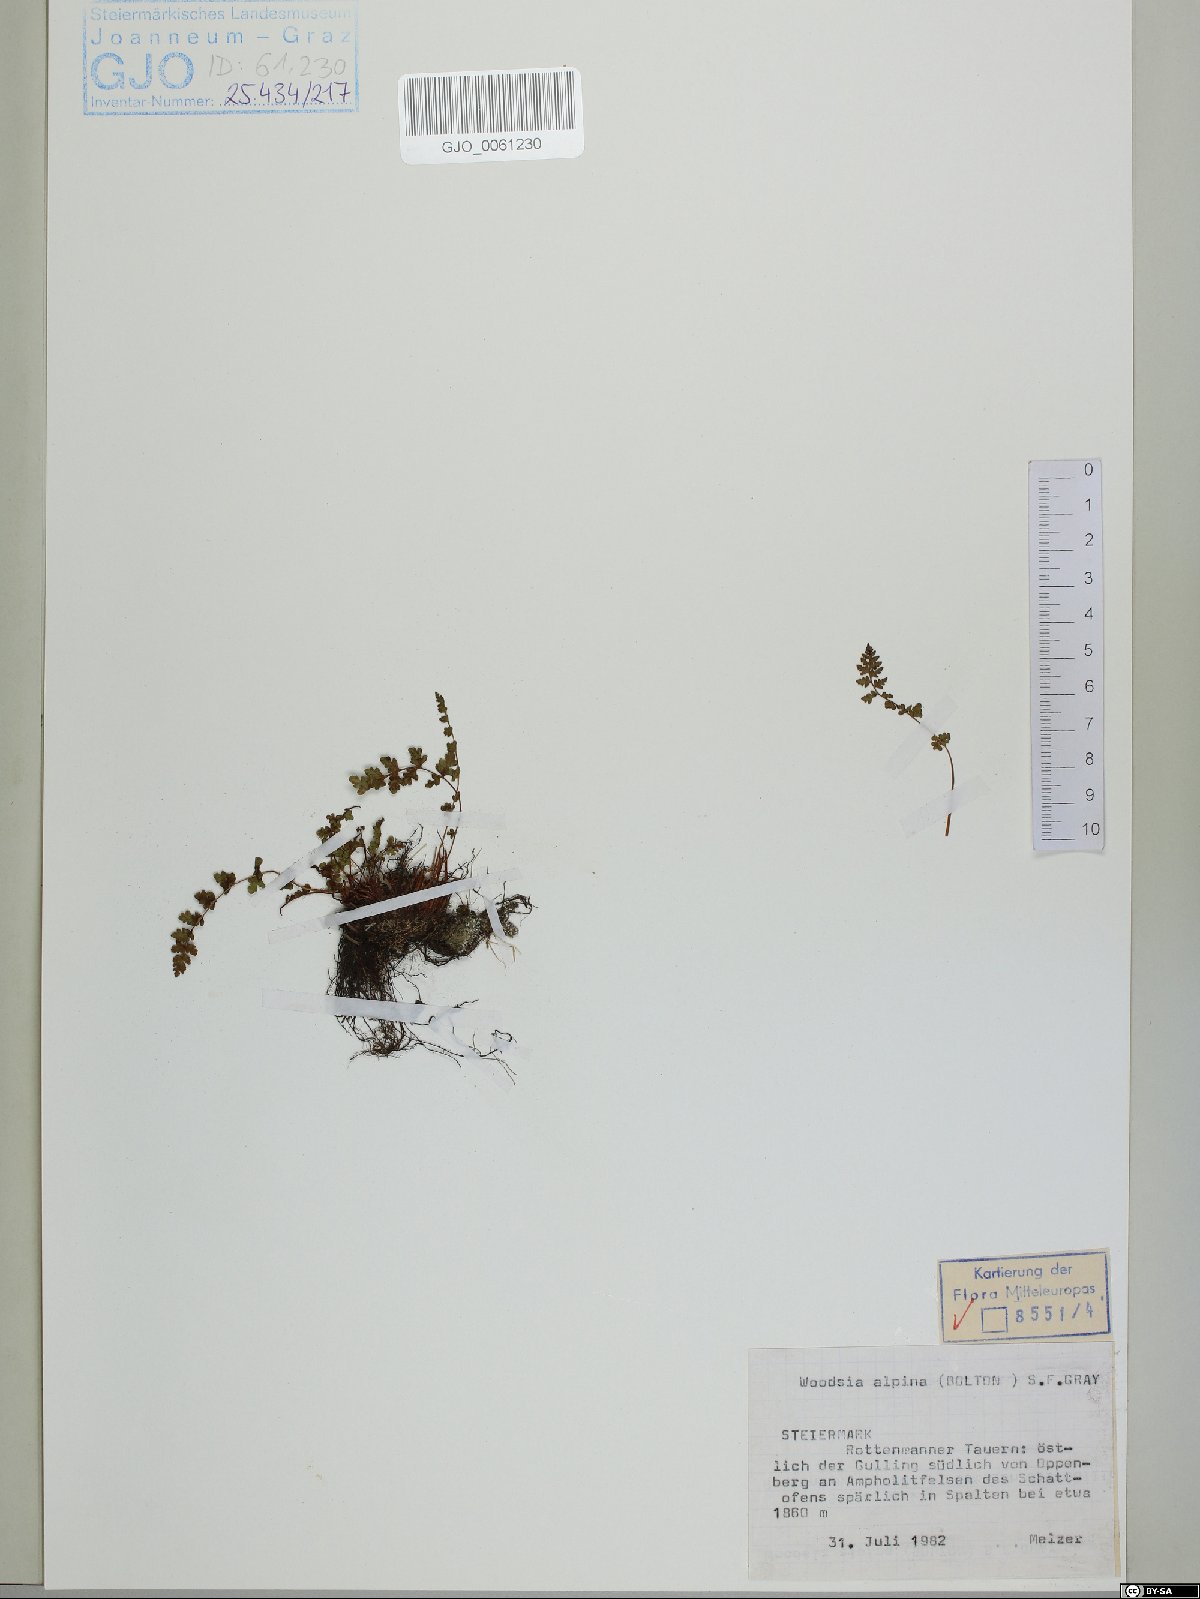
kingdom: Plantae
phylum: Tracheophyta
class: Polypodiopsida
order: Polypodiales
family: Woodsiaceae
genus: Woodsia
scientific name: Woodsia alpina
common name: Alpine woodsia
